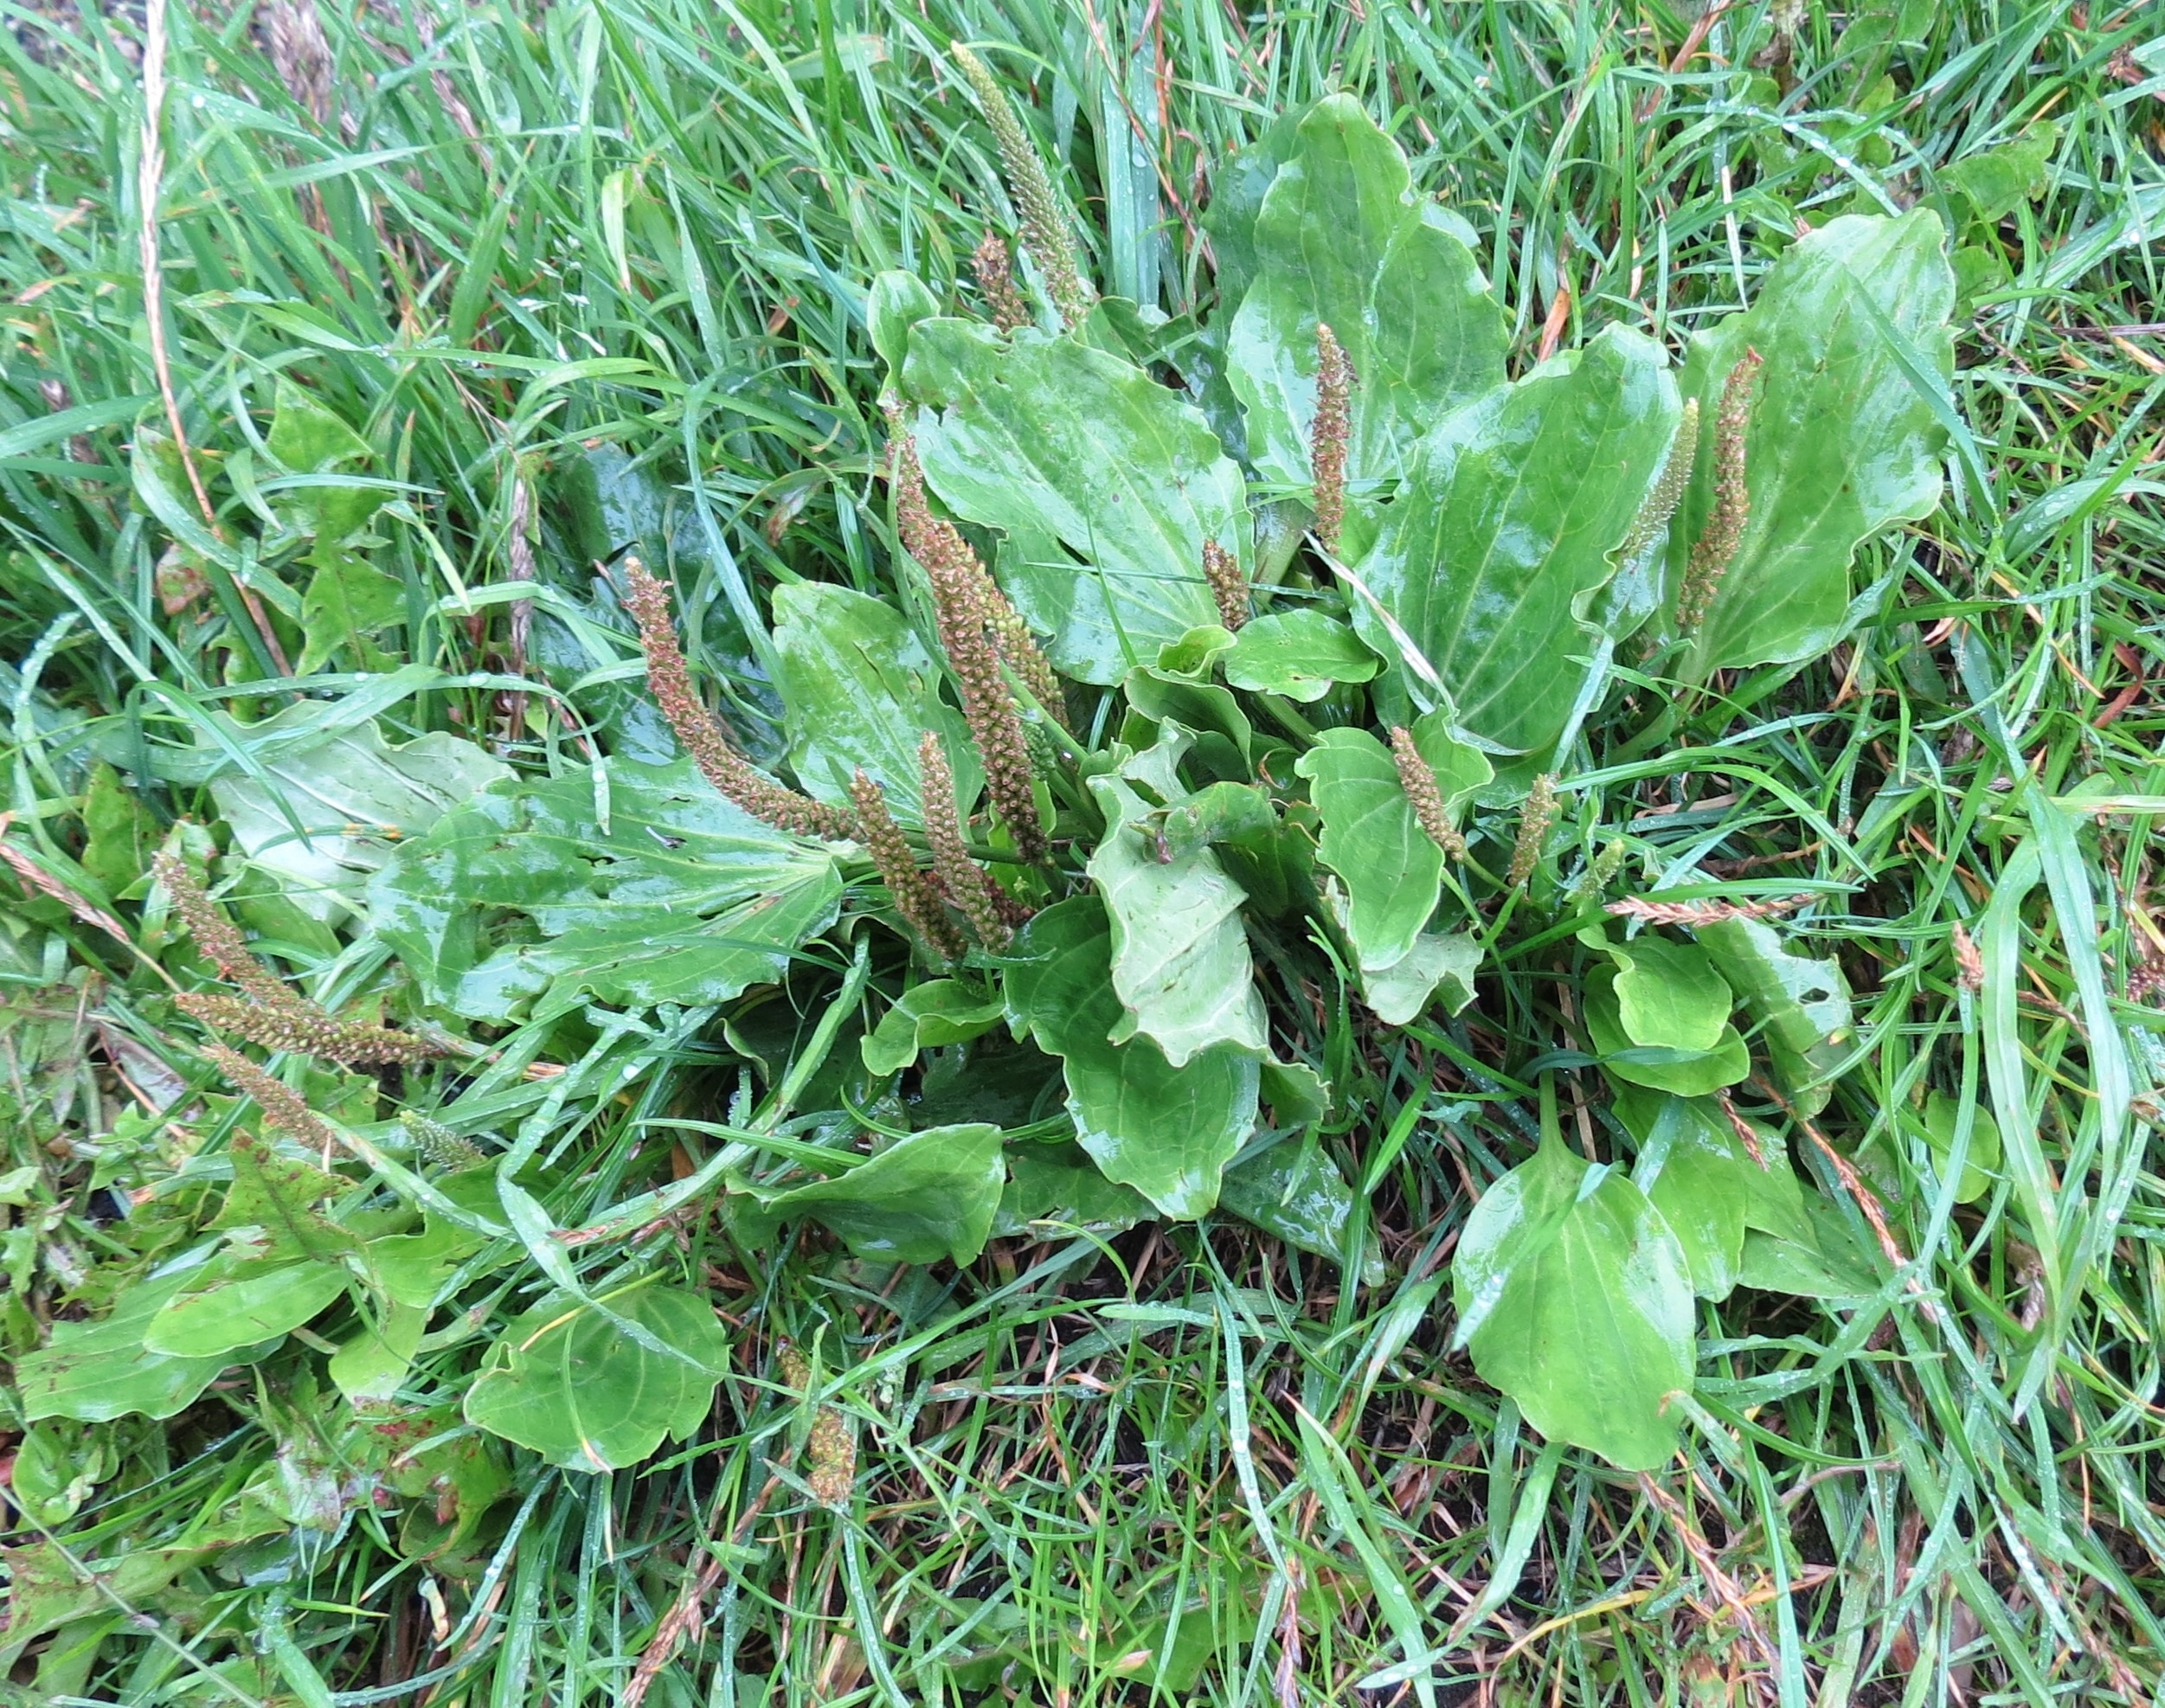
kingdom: Plantae
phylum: Tracheophyta
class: Magnoliopsida
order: Lamiales
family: Plantaginaceae
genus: Plantago
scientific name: Plantago major
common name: Glat vejbred
